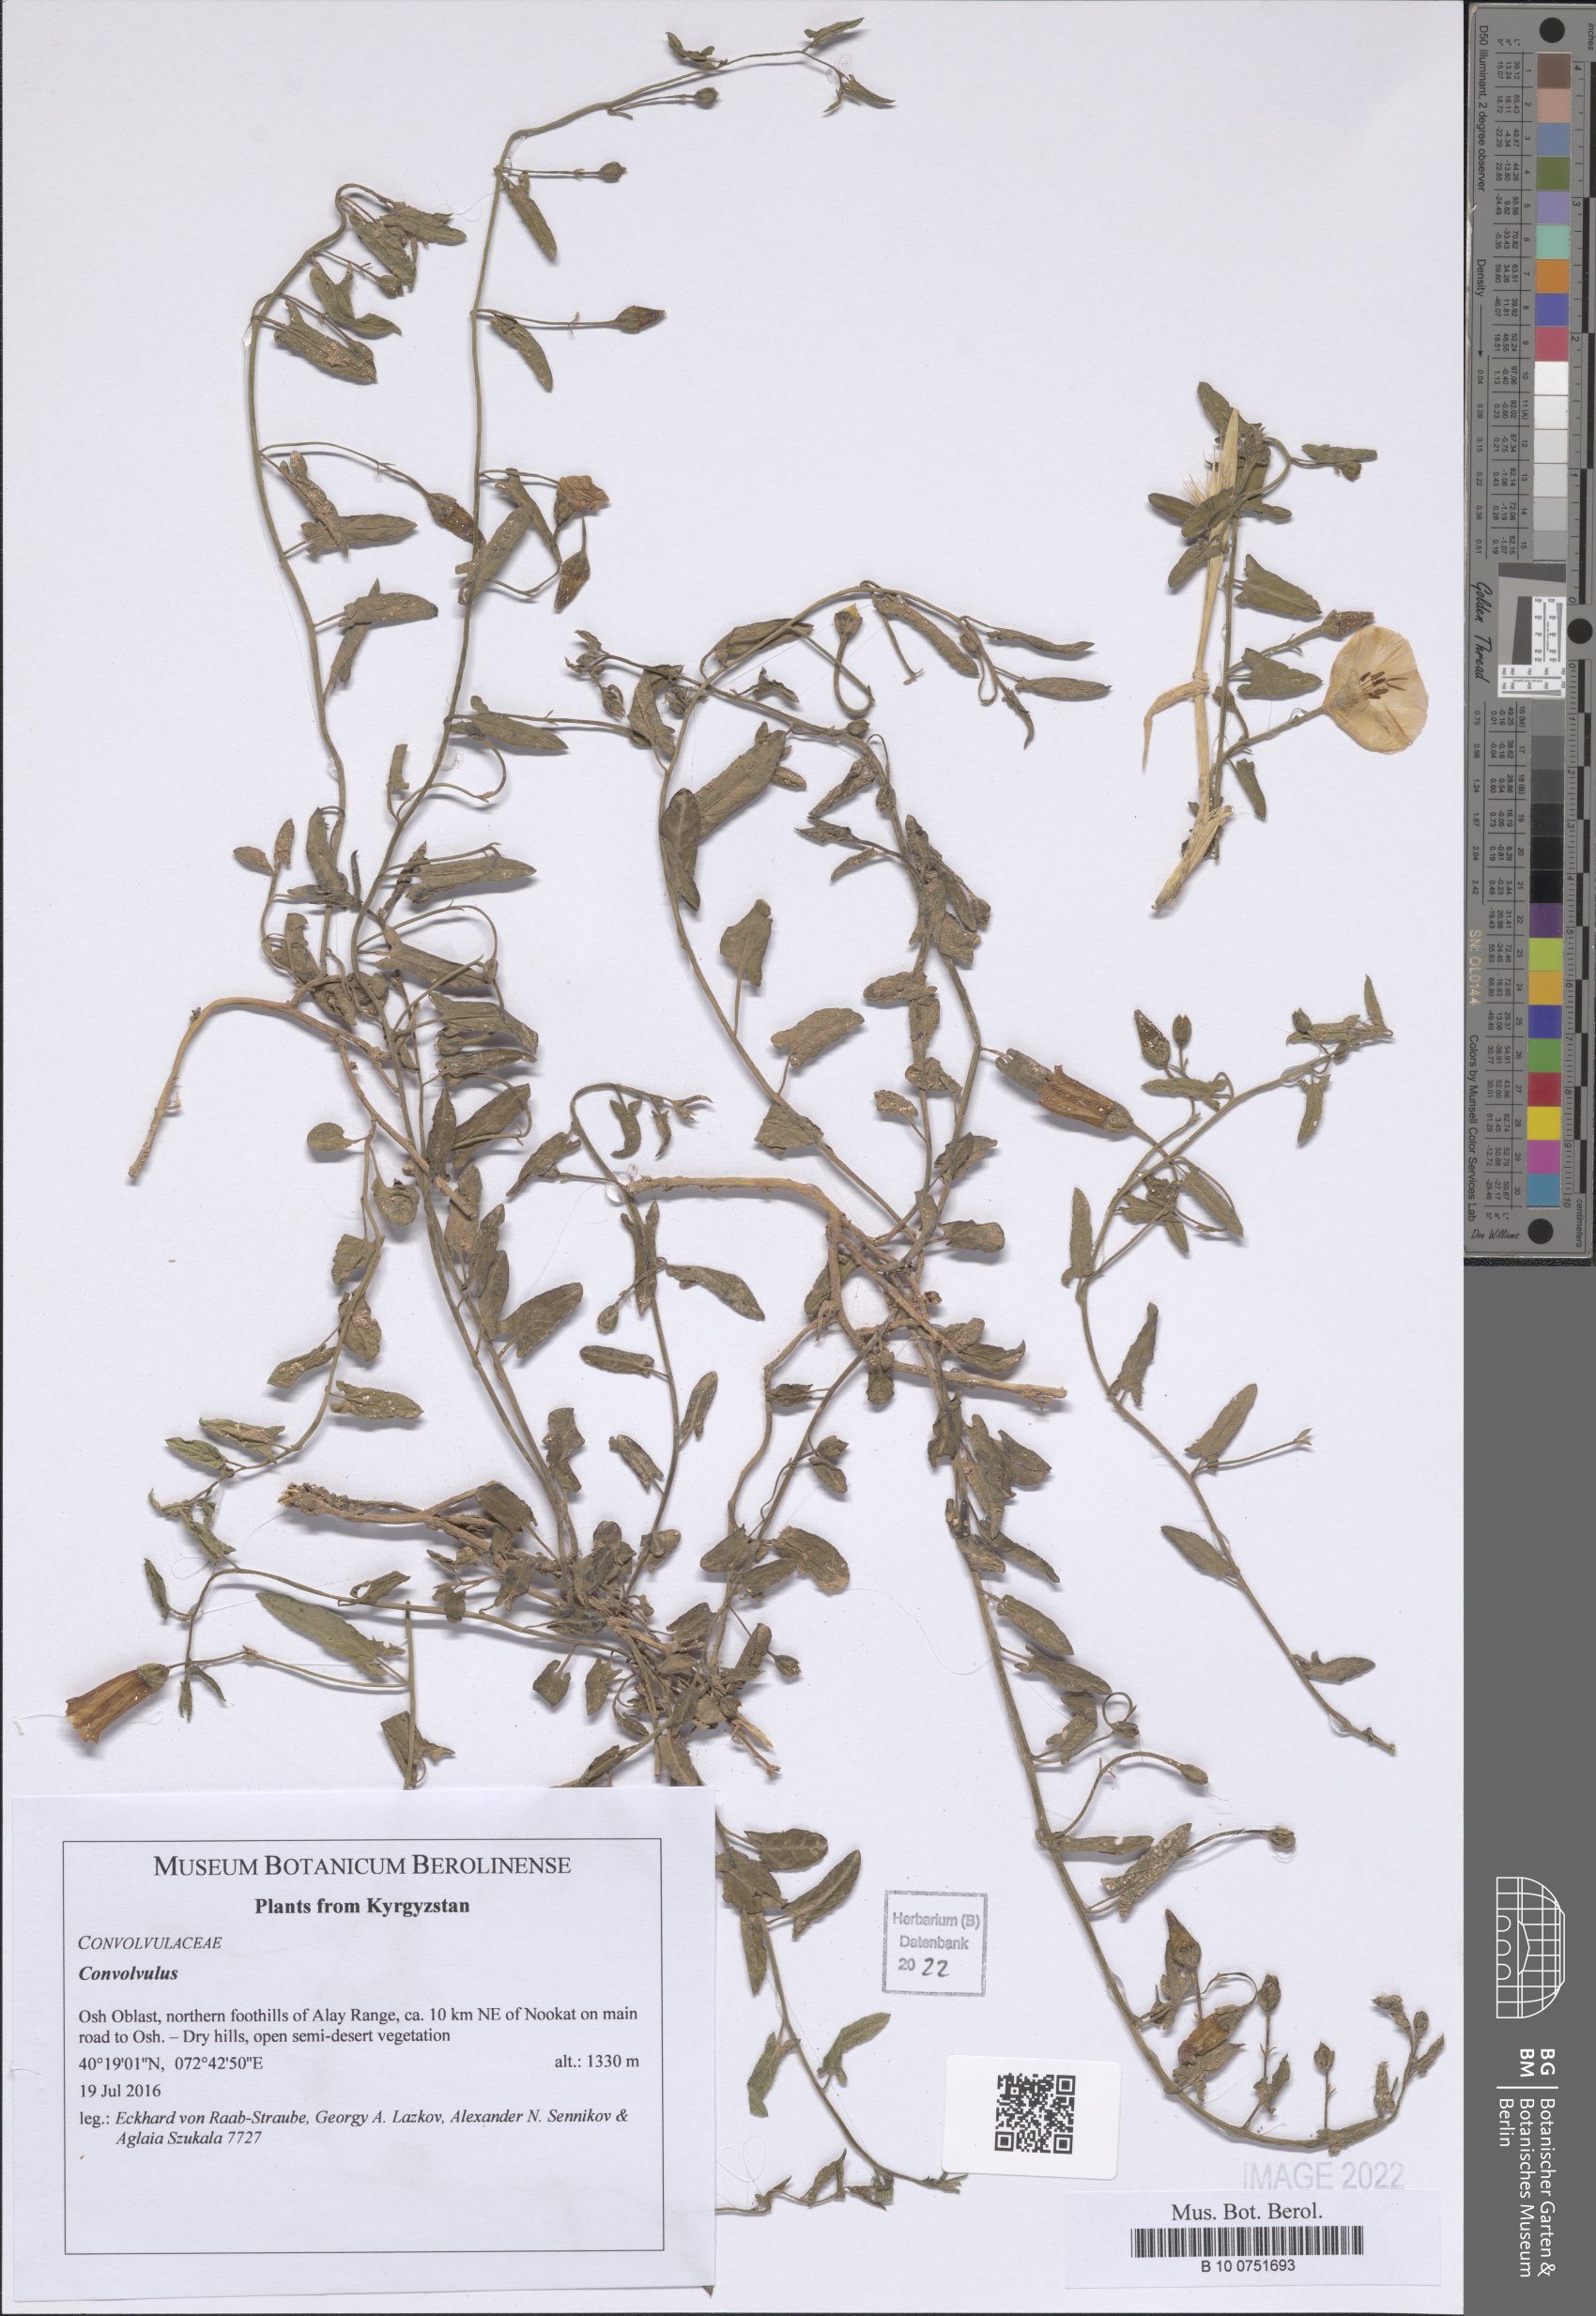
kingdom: Plantae
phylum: Tracheophyta
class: Magnoliopsida
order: Solanales
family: Convolvulaceae
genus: Convolvulus
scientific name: Convolvulus
